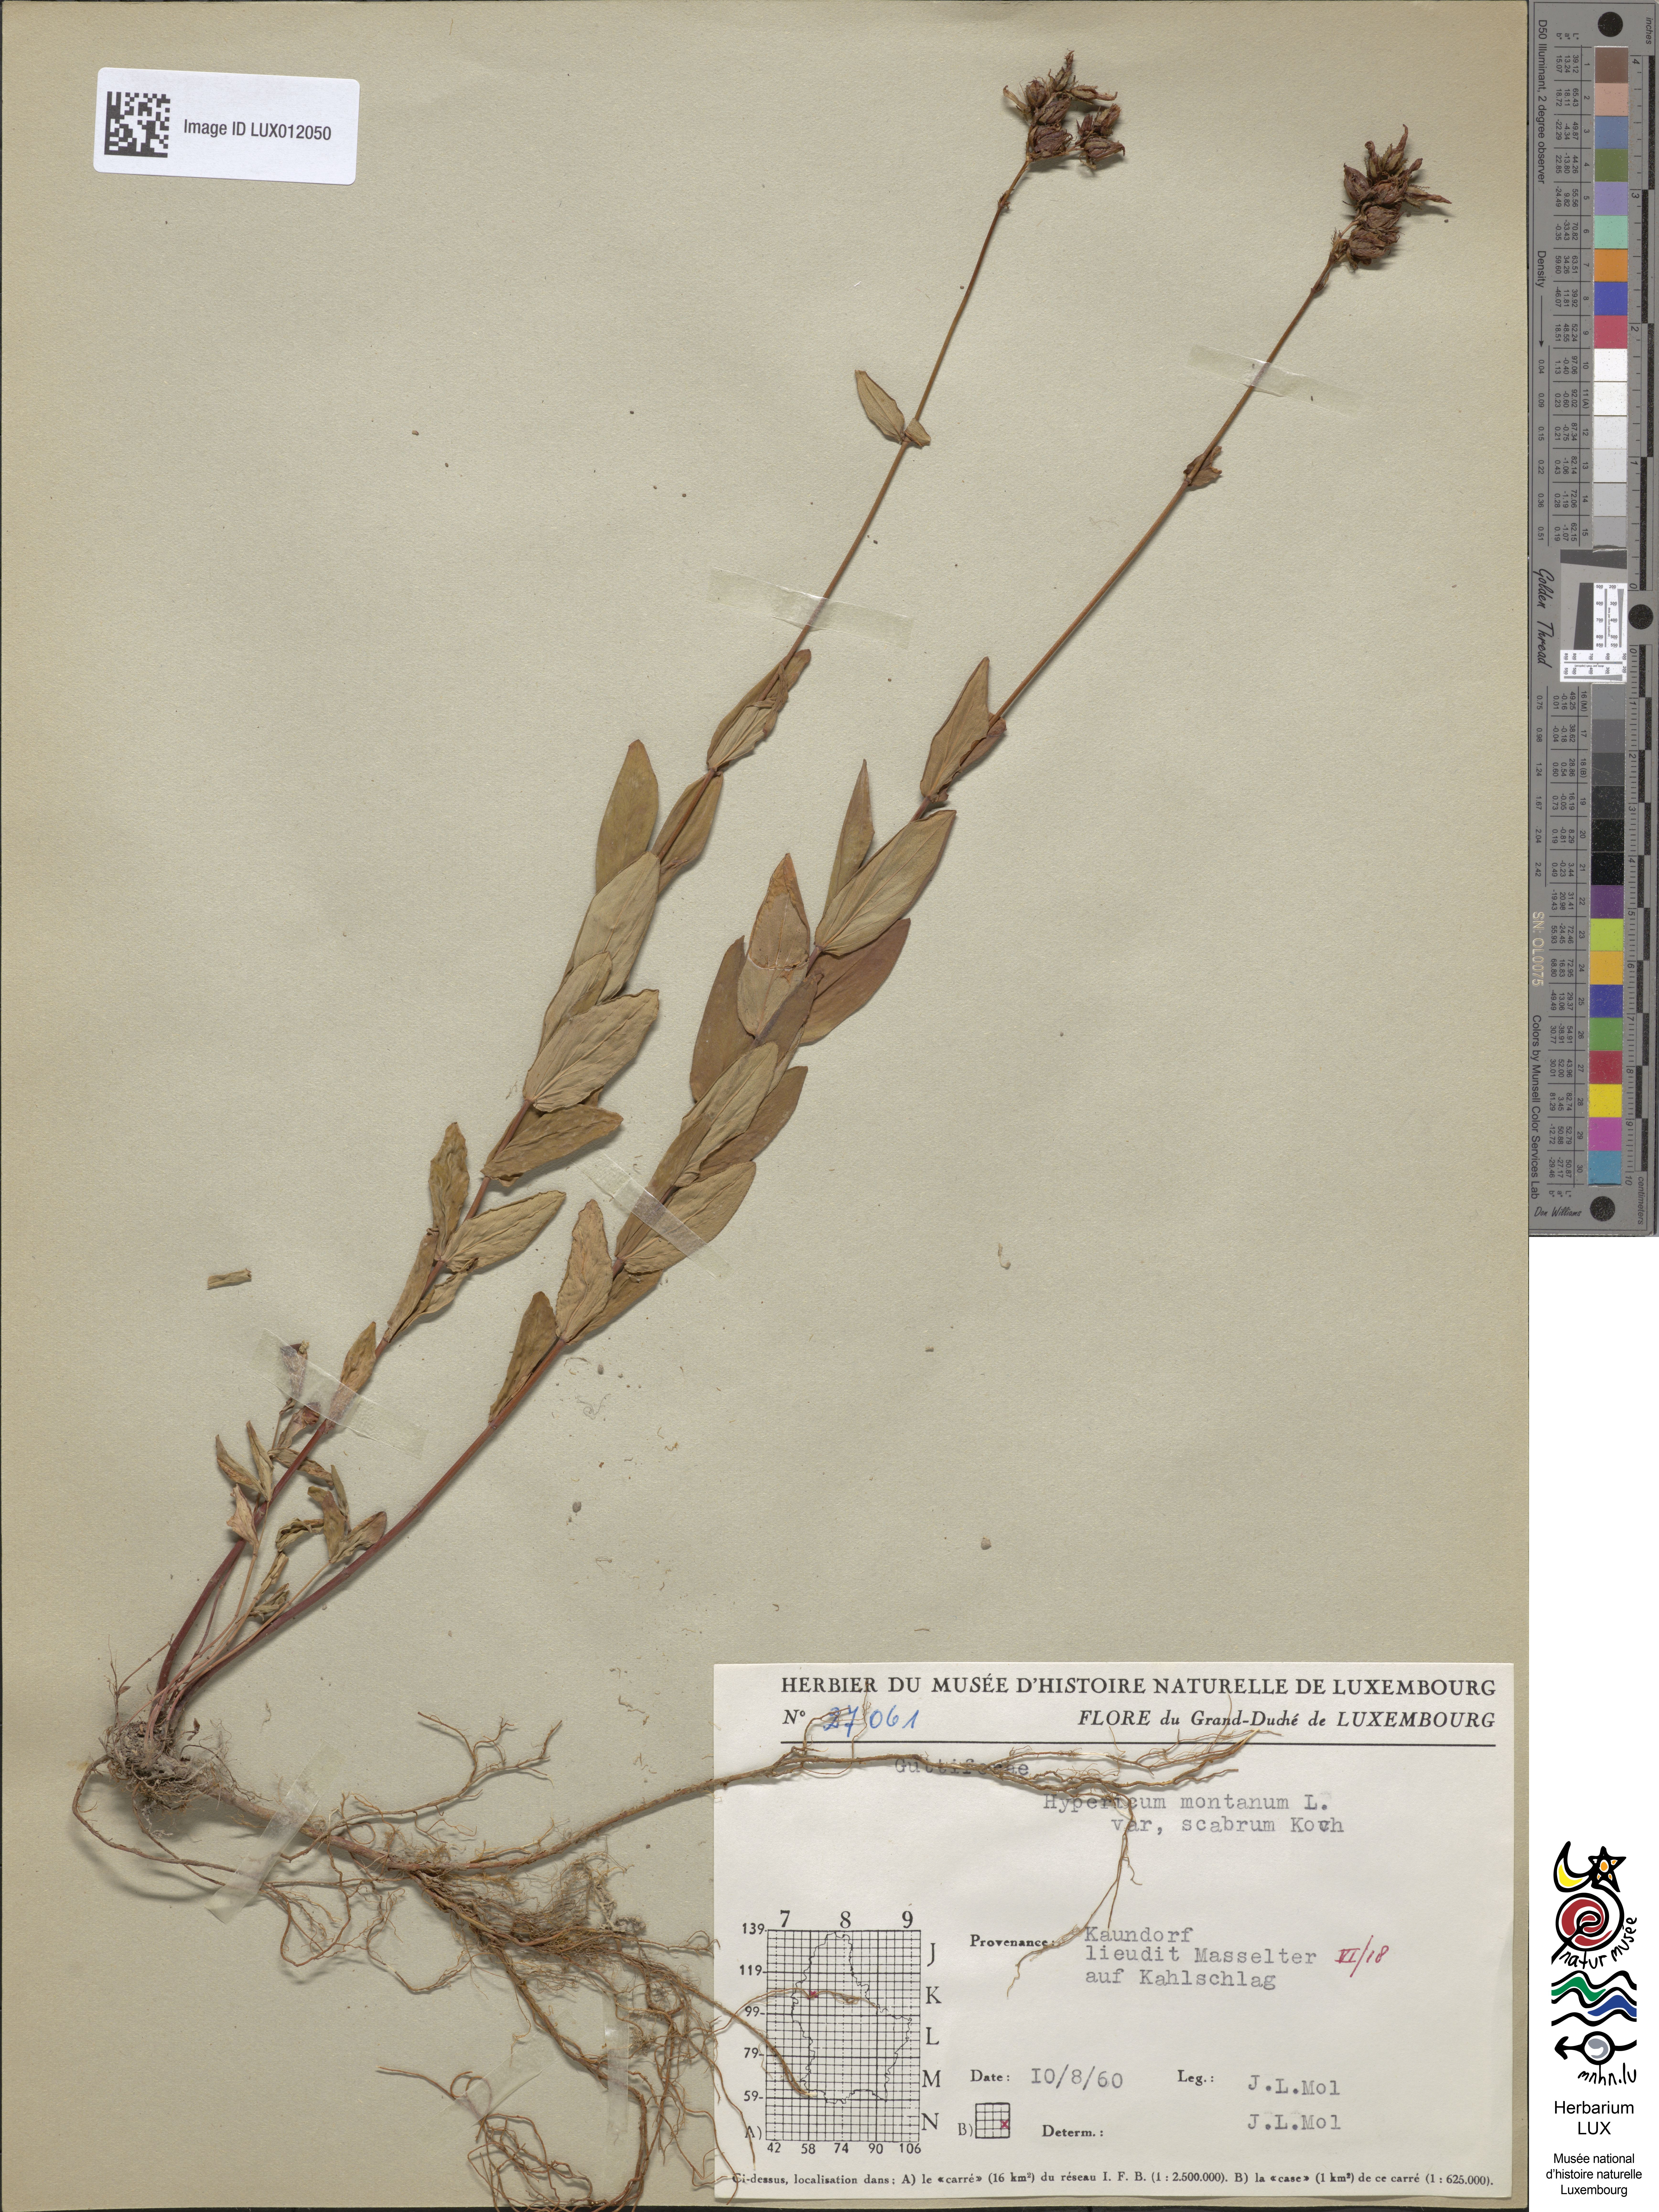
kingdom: Plantae
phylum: Tracheophyta
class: Magnoliopsida
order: Malpighiales
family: Hypericaceae
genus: Hypericum
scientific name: Hypericum montanum
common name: Pale st. john's-wort
